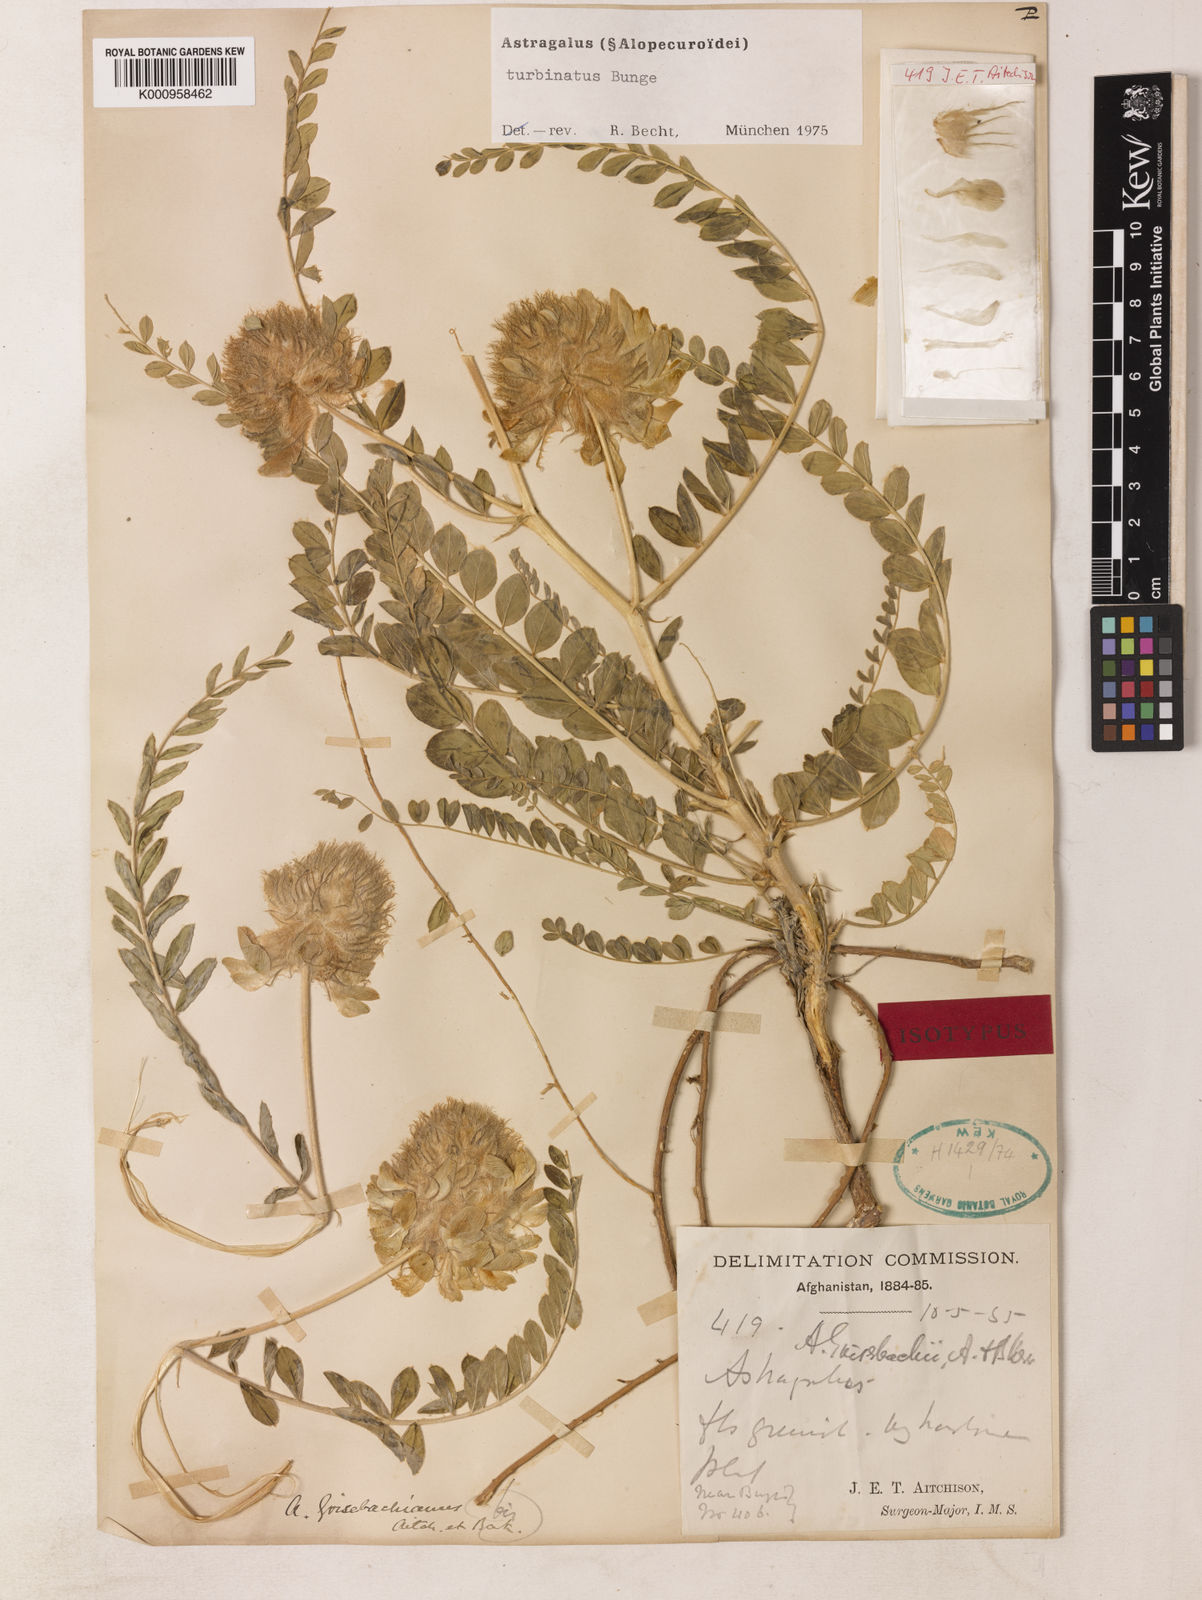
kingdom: Plantae
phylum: Tracheophyta
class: Magnoliopsida
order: Fabales
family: Fabaceae
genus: Astragalus
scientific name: Astragalus
